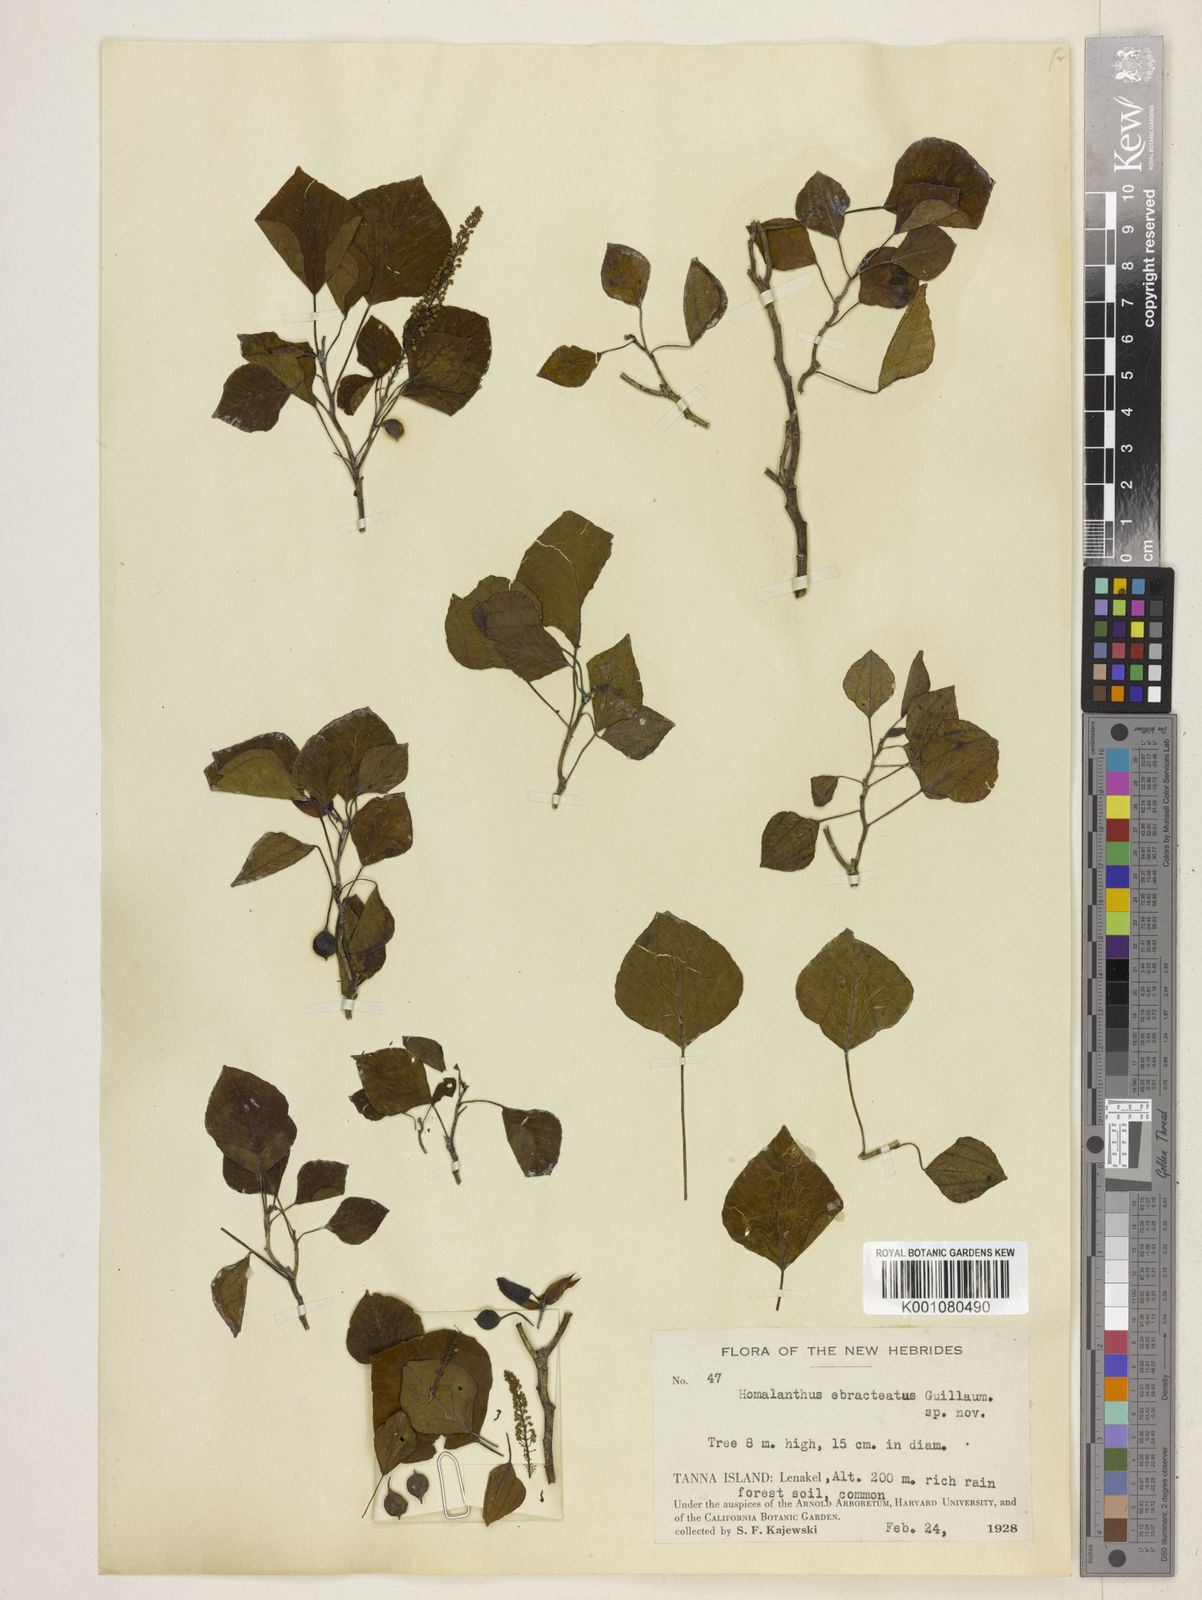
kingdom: Plantae
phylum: Tracheophyta
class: Magnoliopsida
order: Malpighiales
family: Euphorbiaceae
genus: Homalanthus
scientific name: Homalanthus
